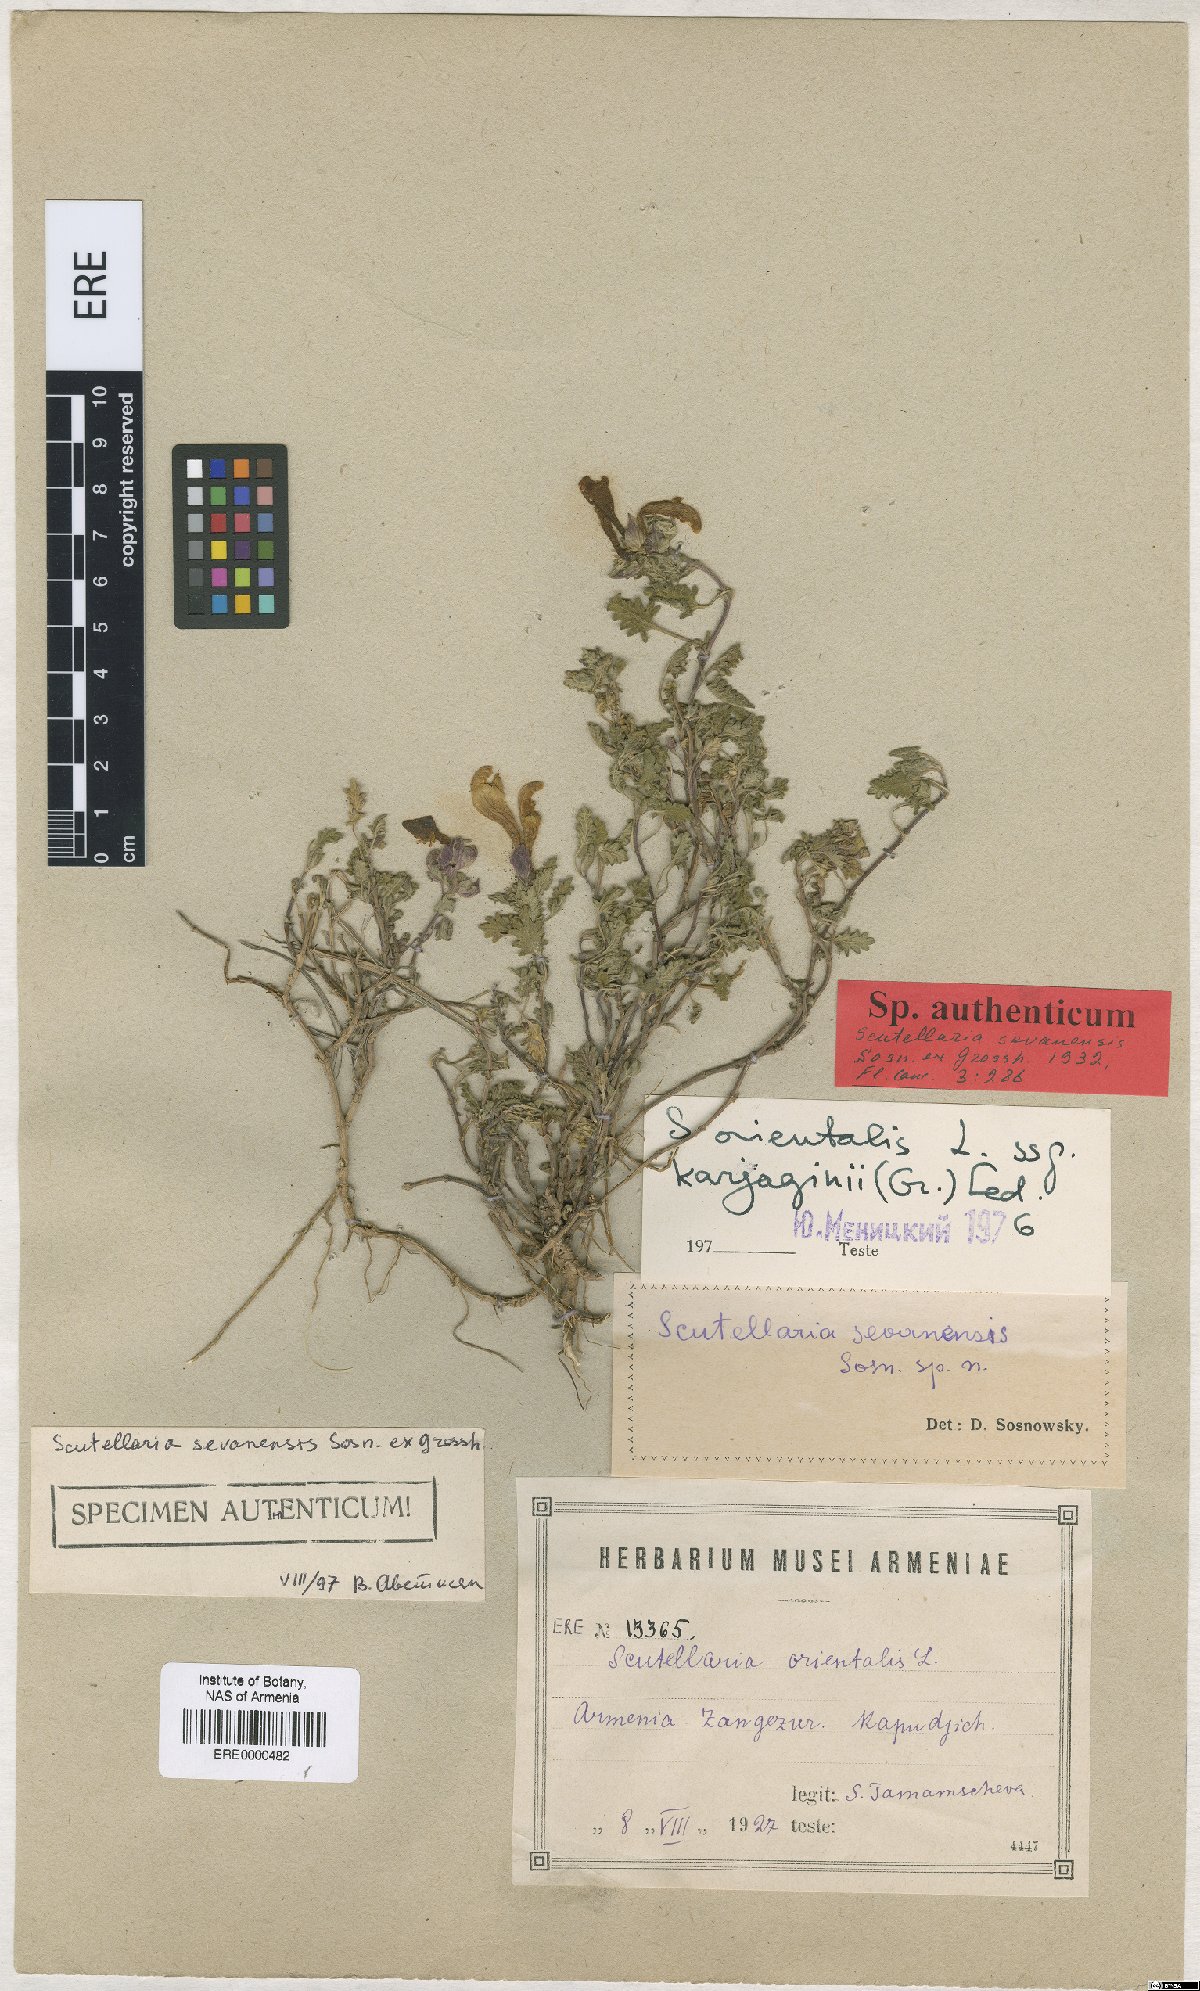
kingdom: Plantae
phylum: Tracheophyta
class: Magnoliopsida
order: Lamiales
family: Lamiaceae
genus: Scutellaria
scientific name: Scutellaria sevanensis
